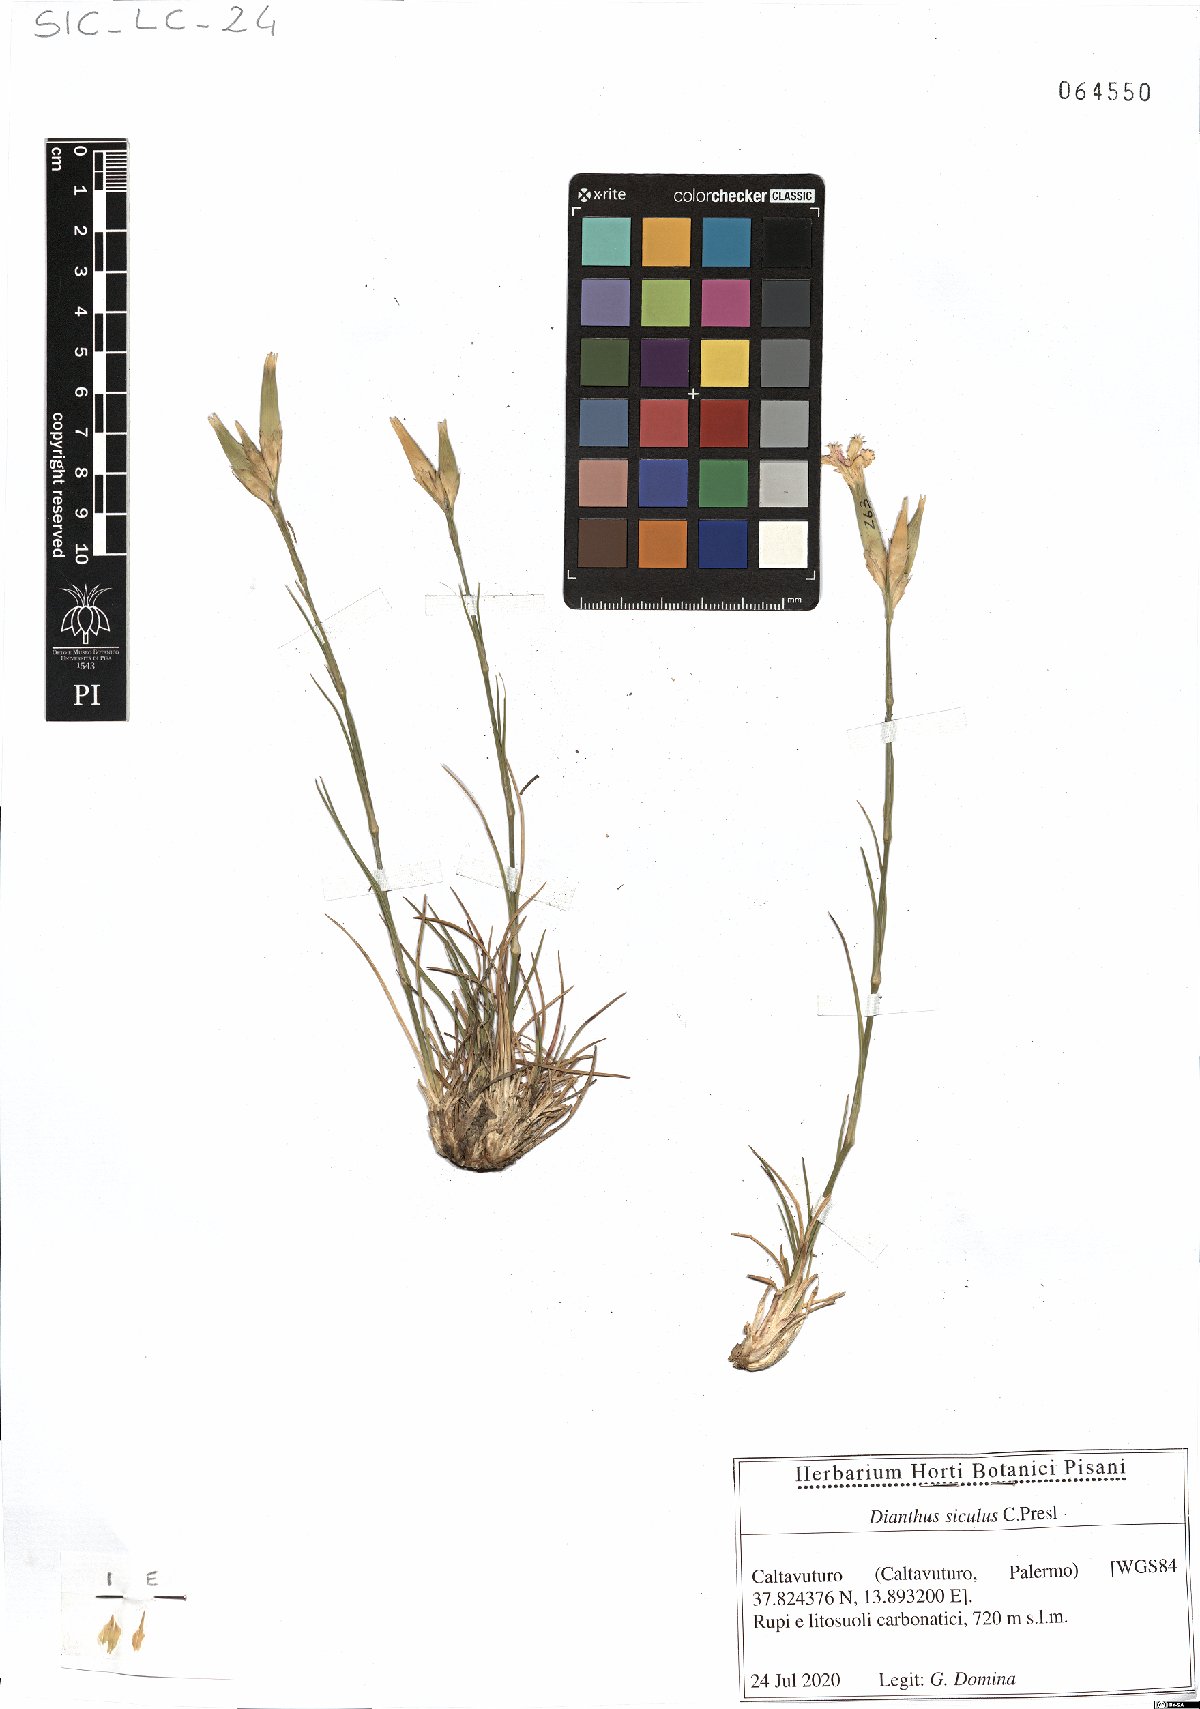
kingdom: Plantae
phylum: Tracheophyta
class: Magnoliopsida
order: Caryophyllales
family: Caryophyllaceae
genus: Dianthus
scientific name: Dianthus siculus
